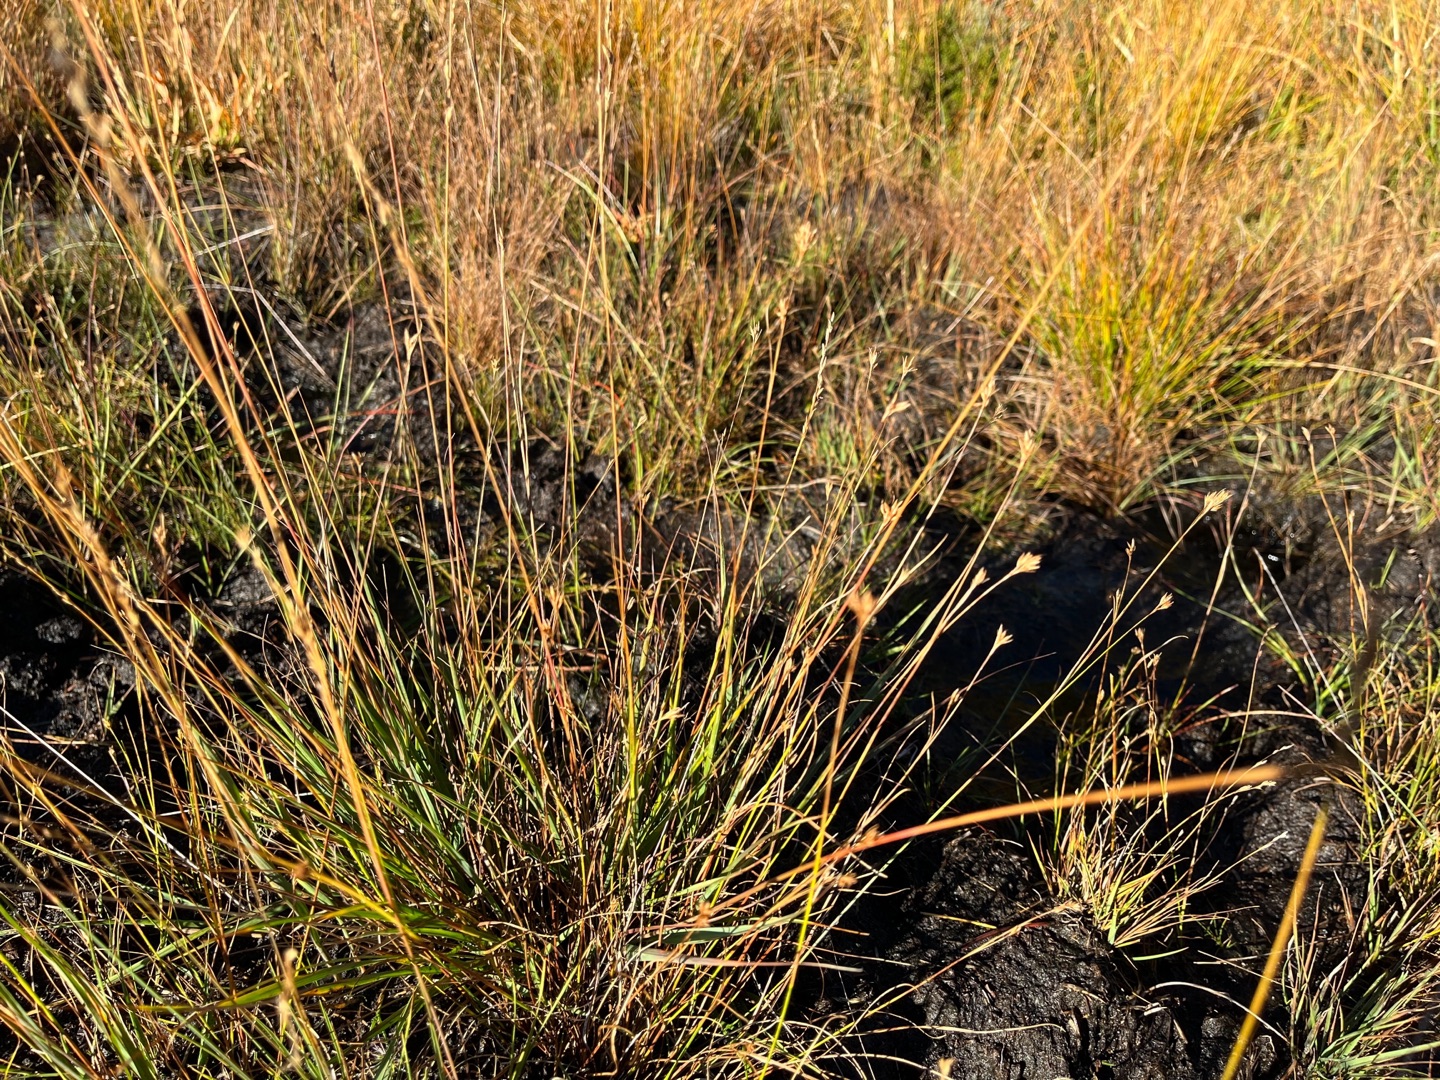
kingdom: Plantae
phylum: Tracheophyta
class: Liliopsida
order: Poales
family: Cyperaceae
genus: Rhynchospora
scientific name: Rhynchospora alba
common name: Hvid næbfrø
